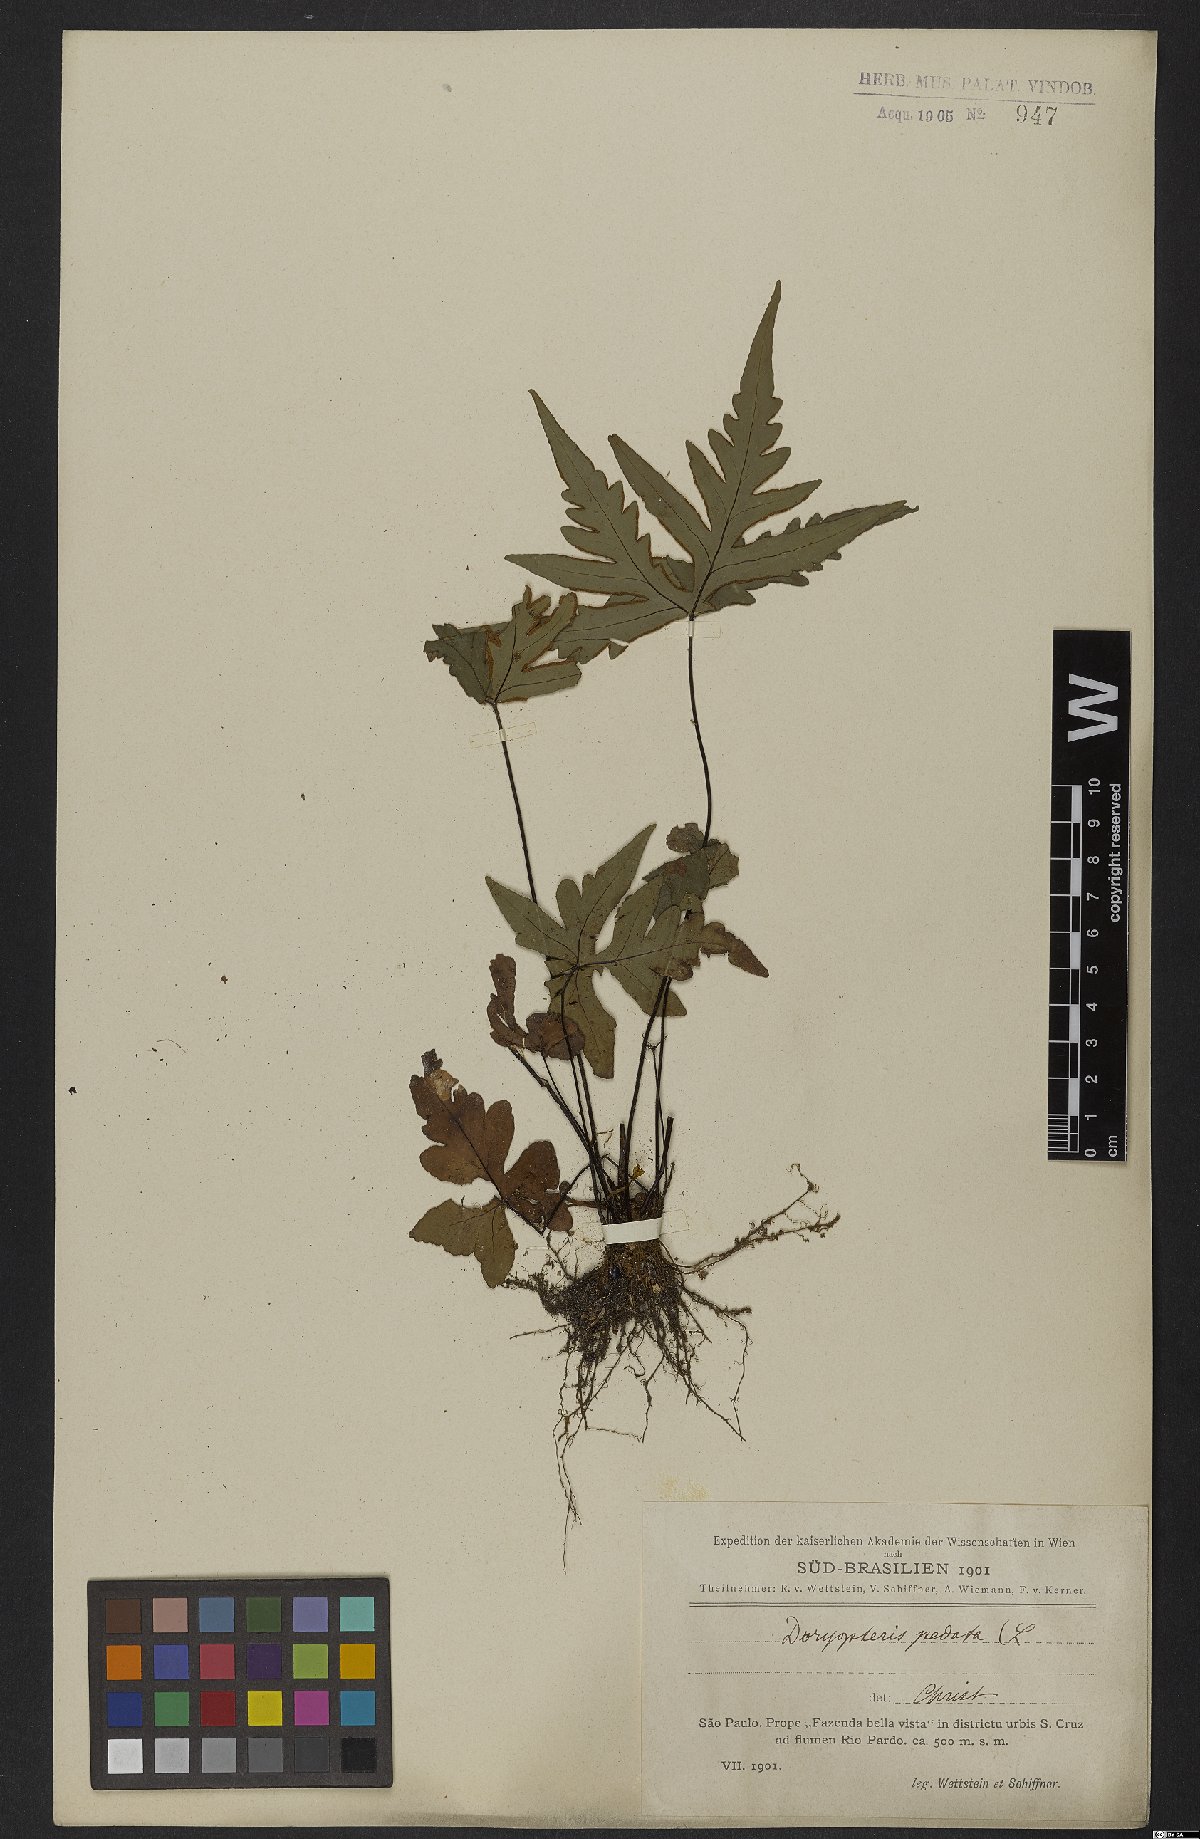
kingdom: Plantae
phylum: Tracheophyta
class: Polypodiopsida
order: Polypodiales
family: Pteridaceae
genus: Doryopteris
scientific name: Doryopteris pedata
